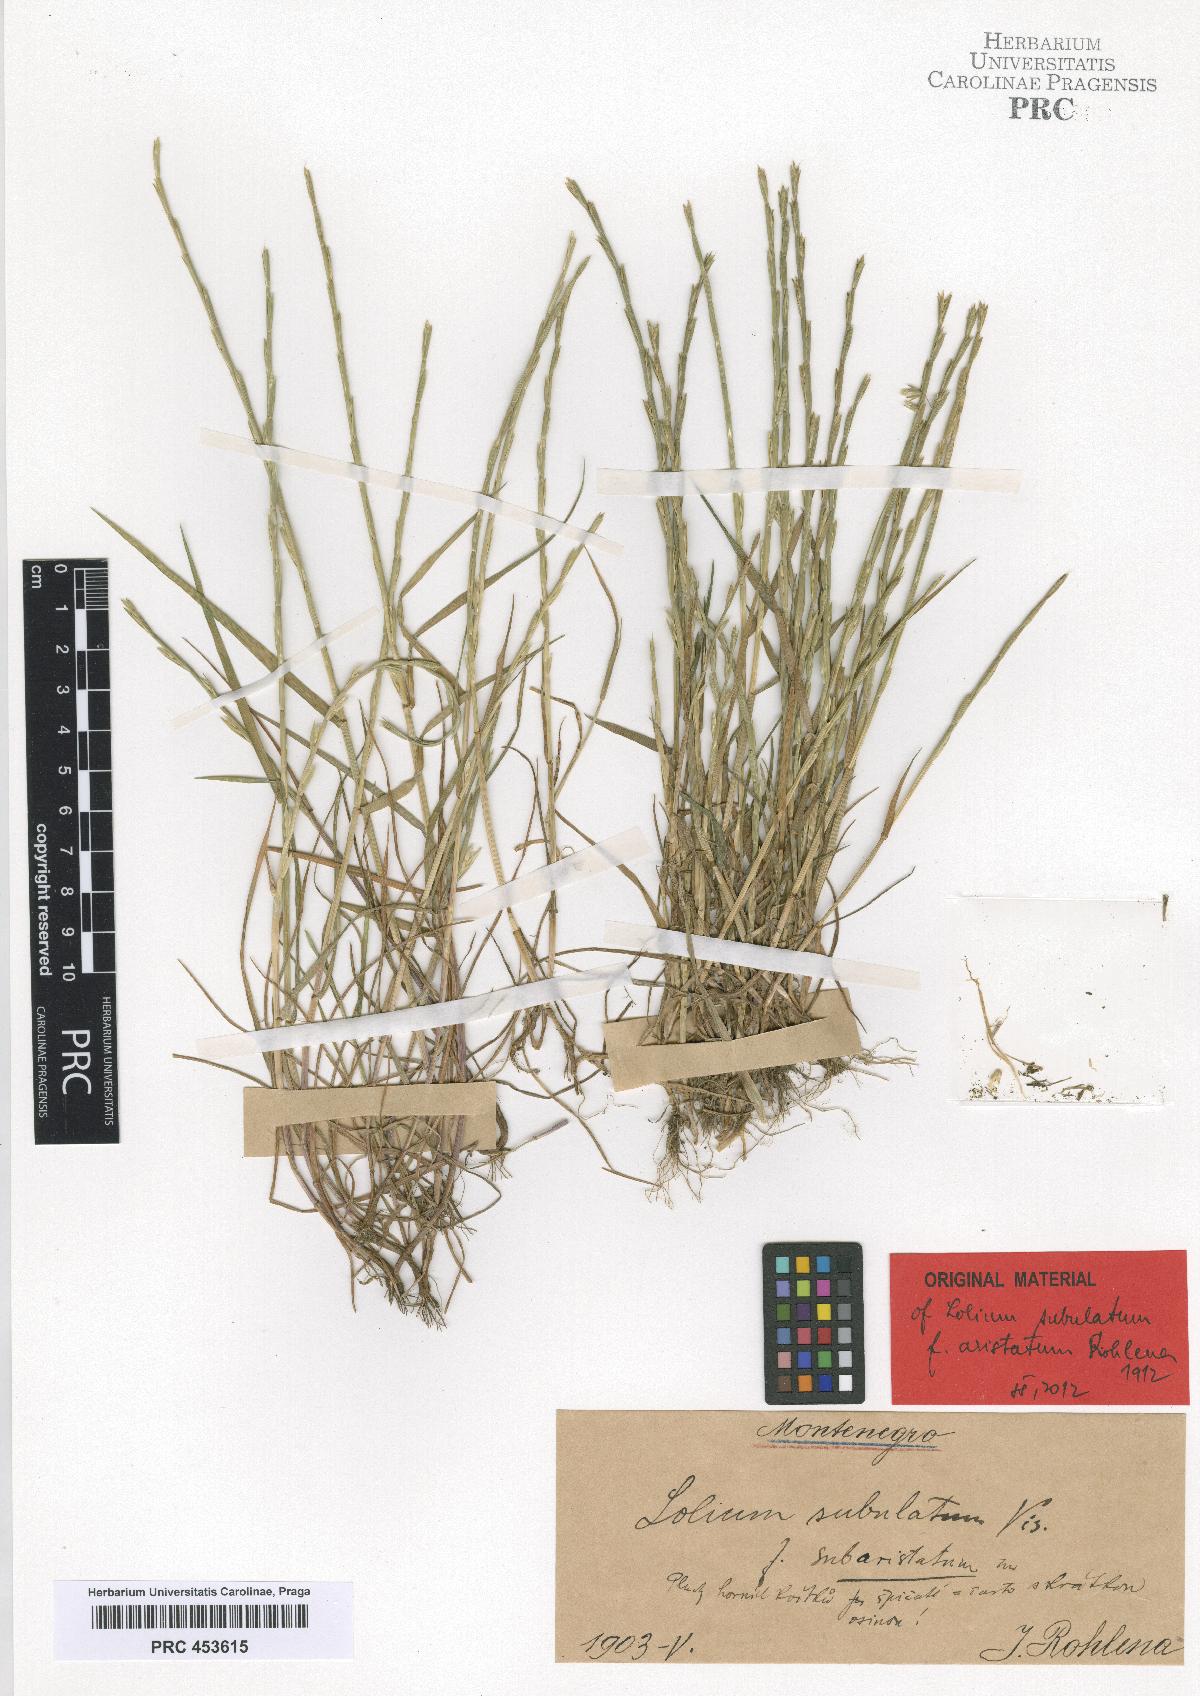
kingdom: Plantae
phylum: Tracheophyta
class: Liliopsida
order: Poales
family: Poaceae
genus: Lolium
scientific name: Lolium subulatum
